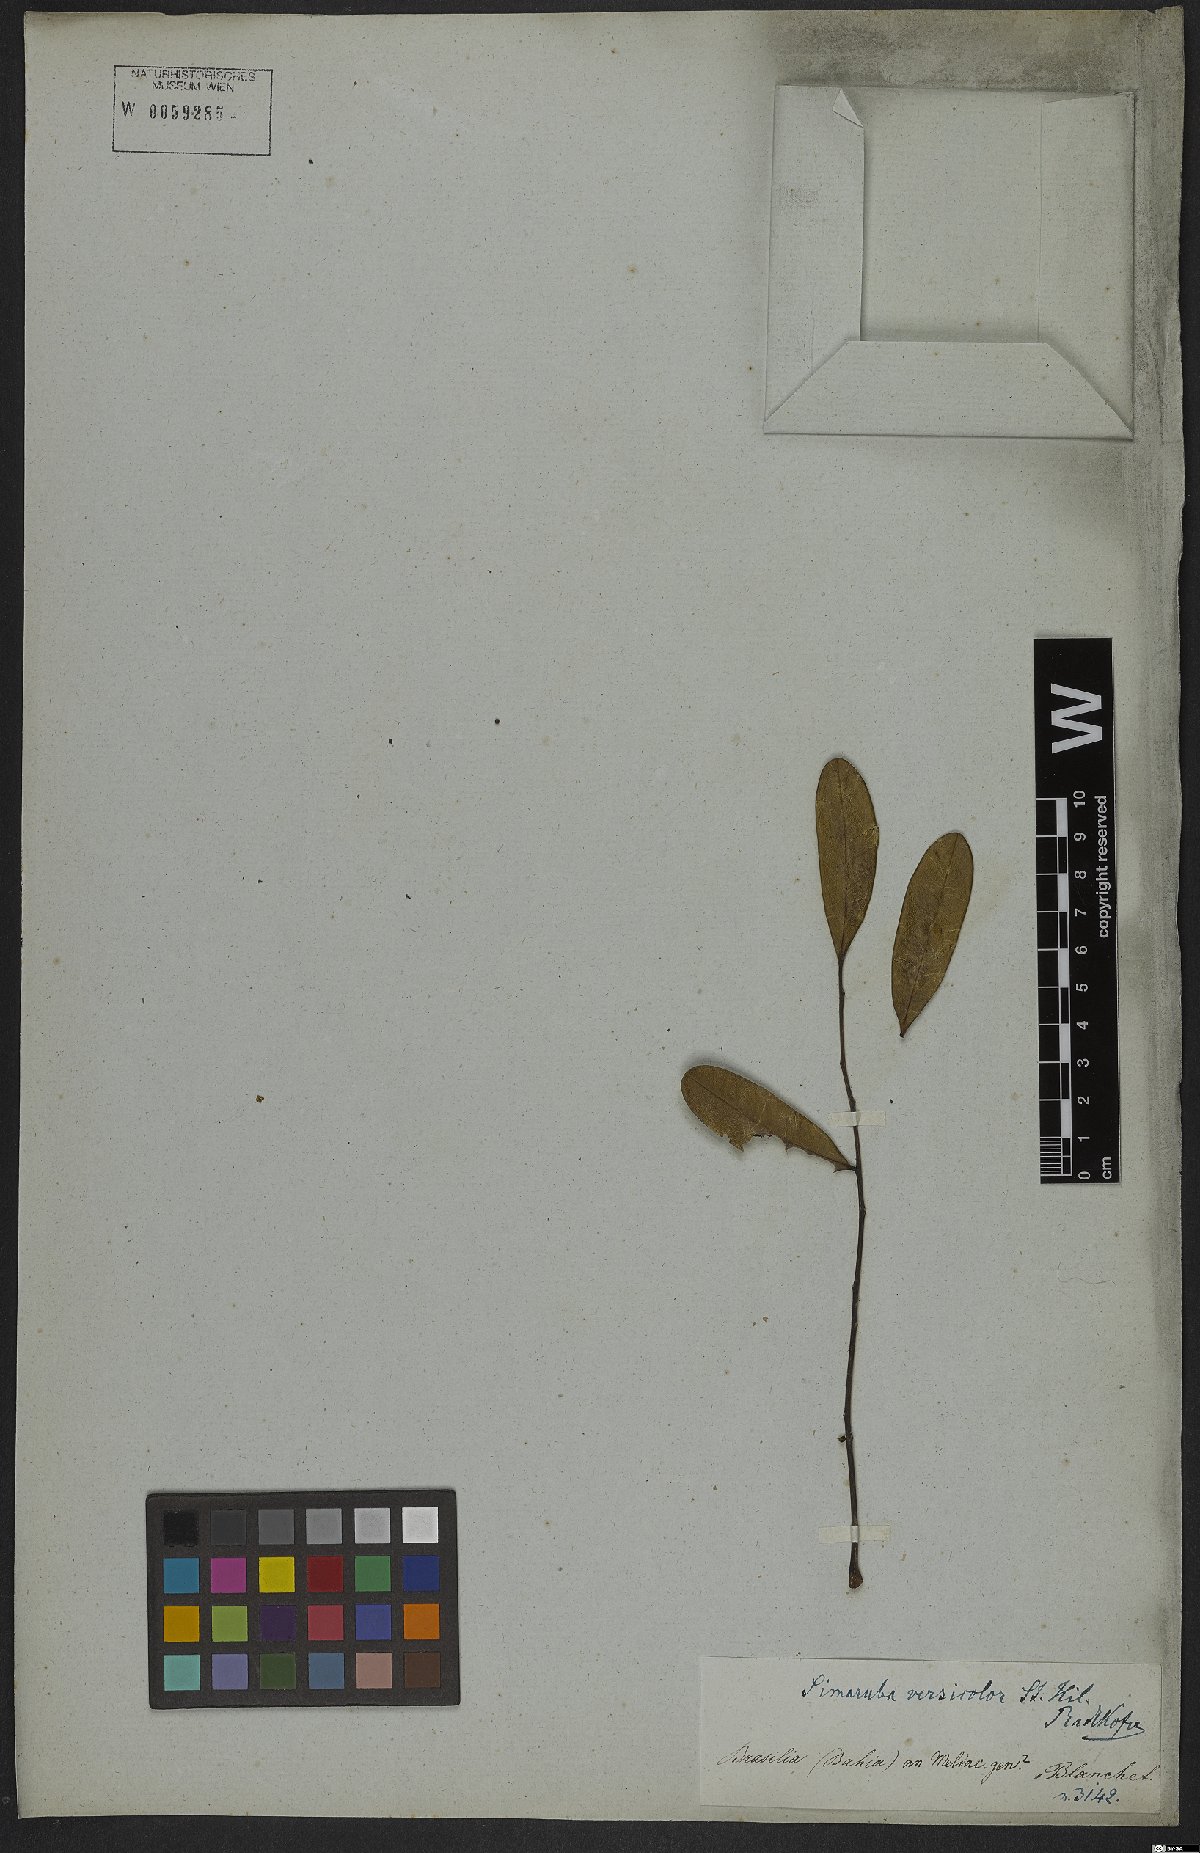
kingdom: Plantae
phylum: Tracheophyta
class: Magnoliopsida
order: Sapindales
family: Simaroubaceae
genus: Simarouba
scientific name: Simarouba versicolor
